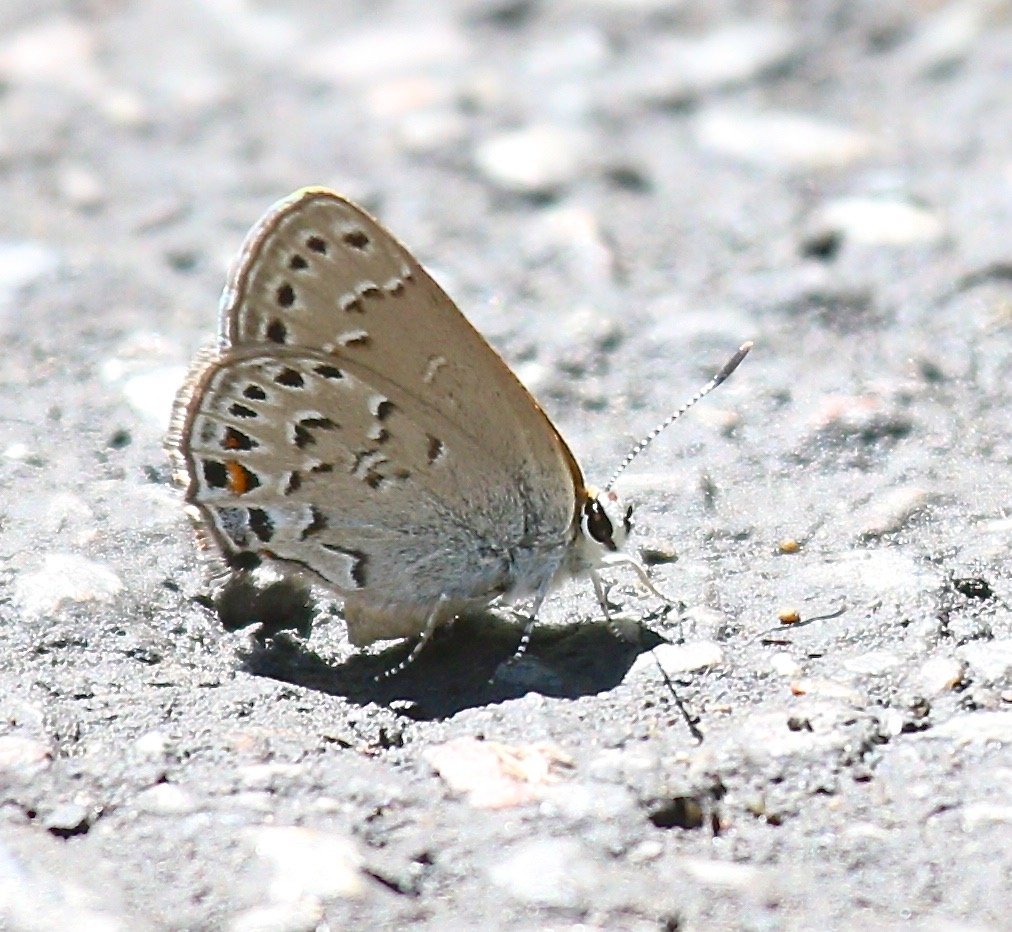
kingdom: Animalia
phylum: Arthropoda
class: Insecta
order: Lepidoptera
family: Lycaenidae
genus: Satyrium
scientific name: Satyrium behrii
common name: Behr's Hairstreak
